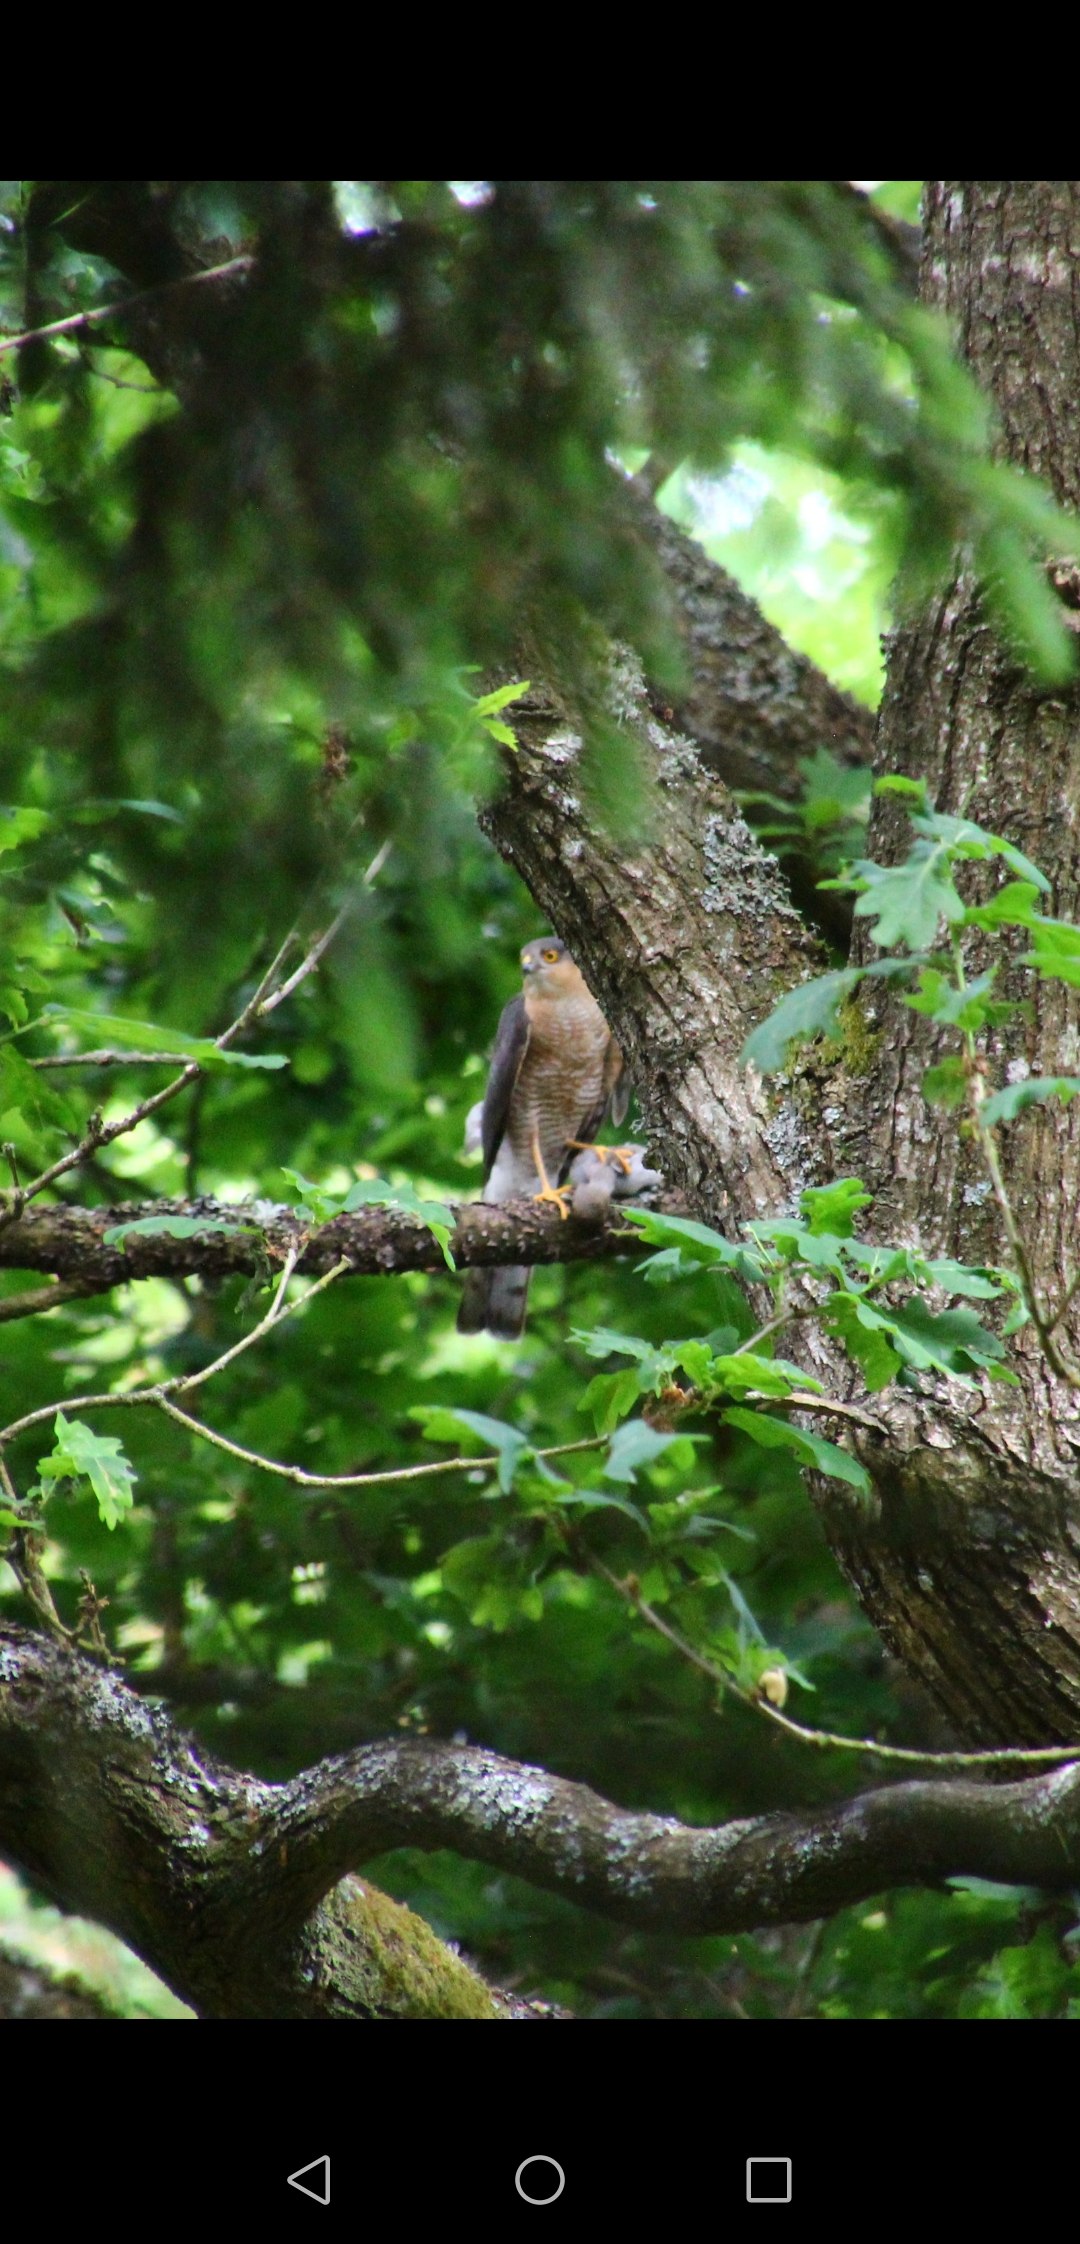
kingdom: Animalia
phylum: Chordata
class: Aves
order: Accipitriformes
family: Accipitridae
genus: Accipiter
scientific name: Accipiter nisus
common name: Spurvehøg
